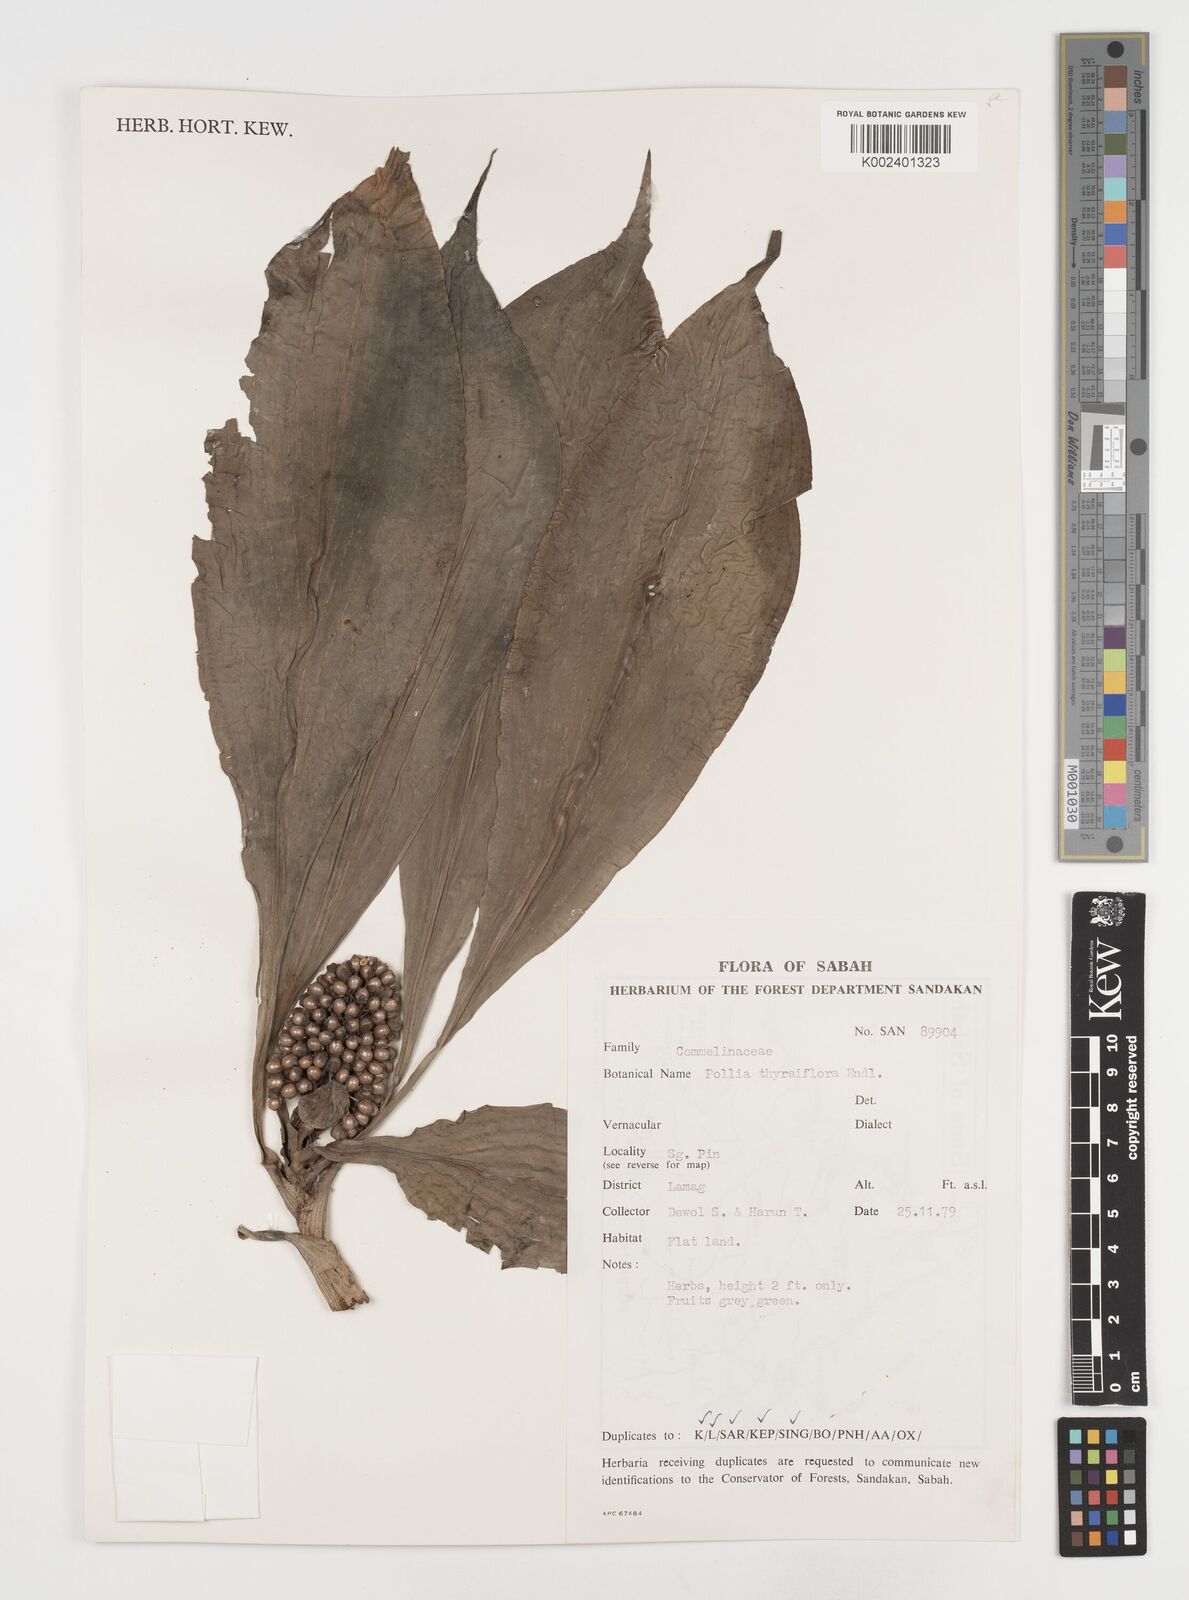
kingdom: Plantae
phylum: Tracheophyta
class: Liliopsida
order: Commelinales
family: Commelinaceae
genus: Pollia
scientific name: Pollia thyrsiflora
